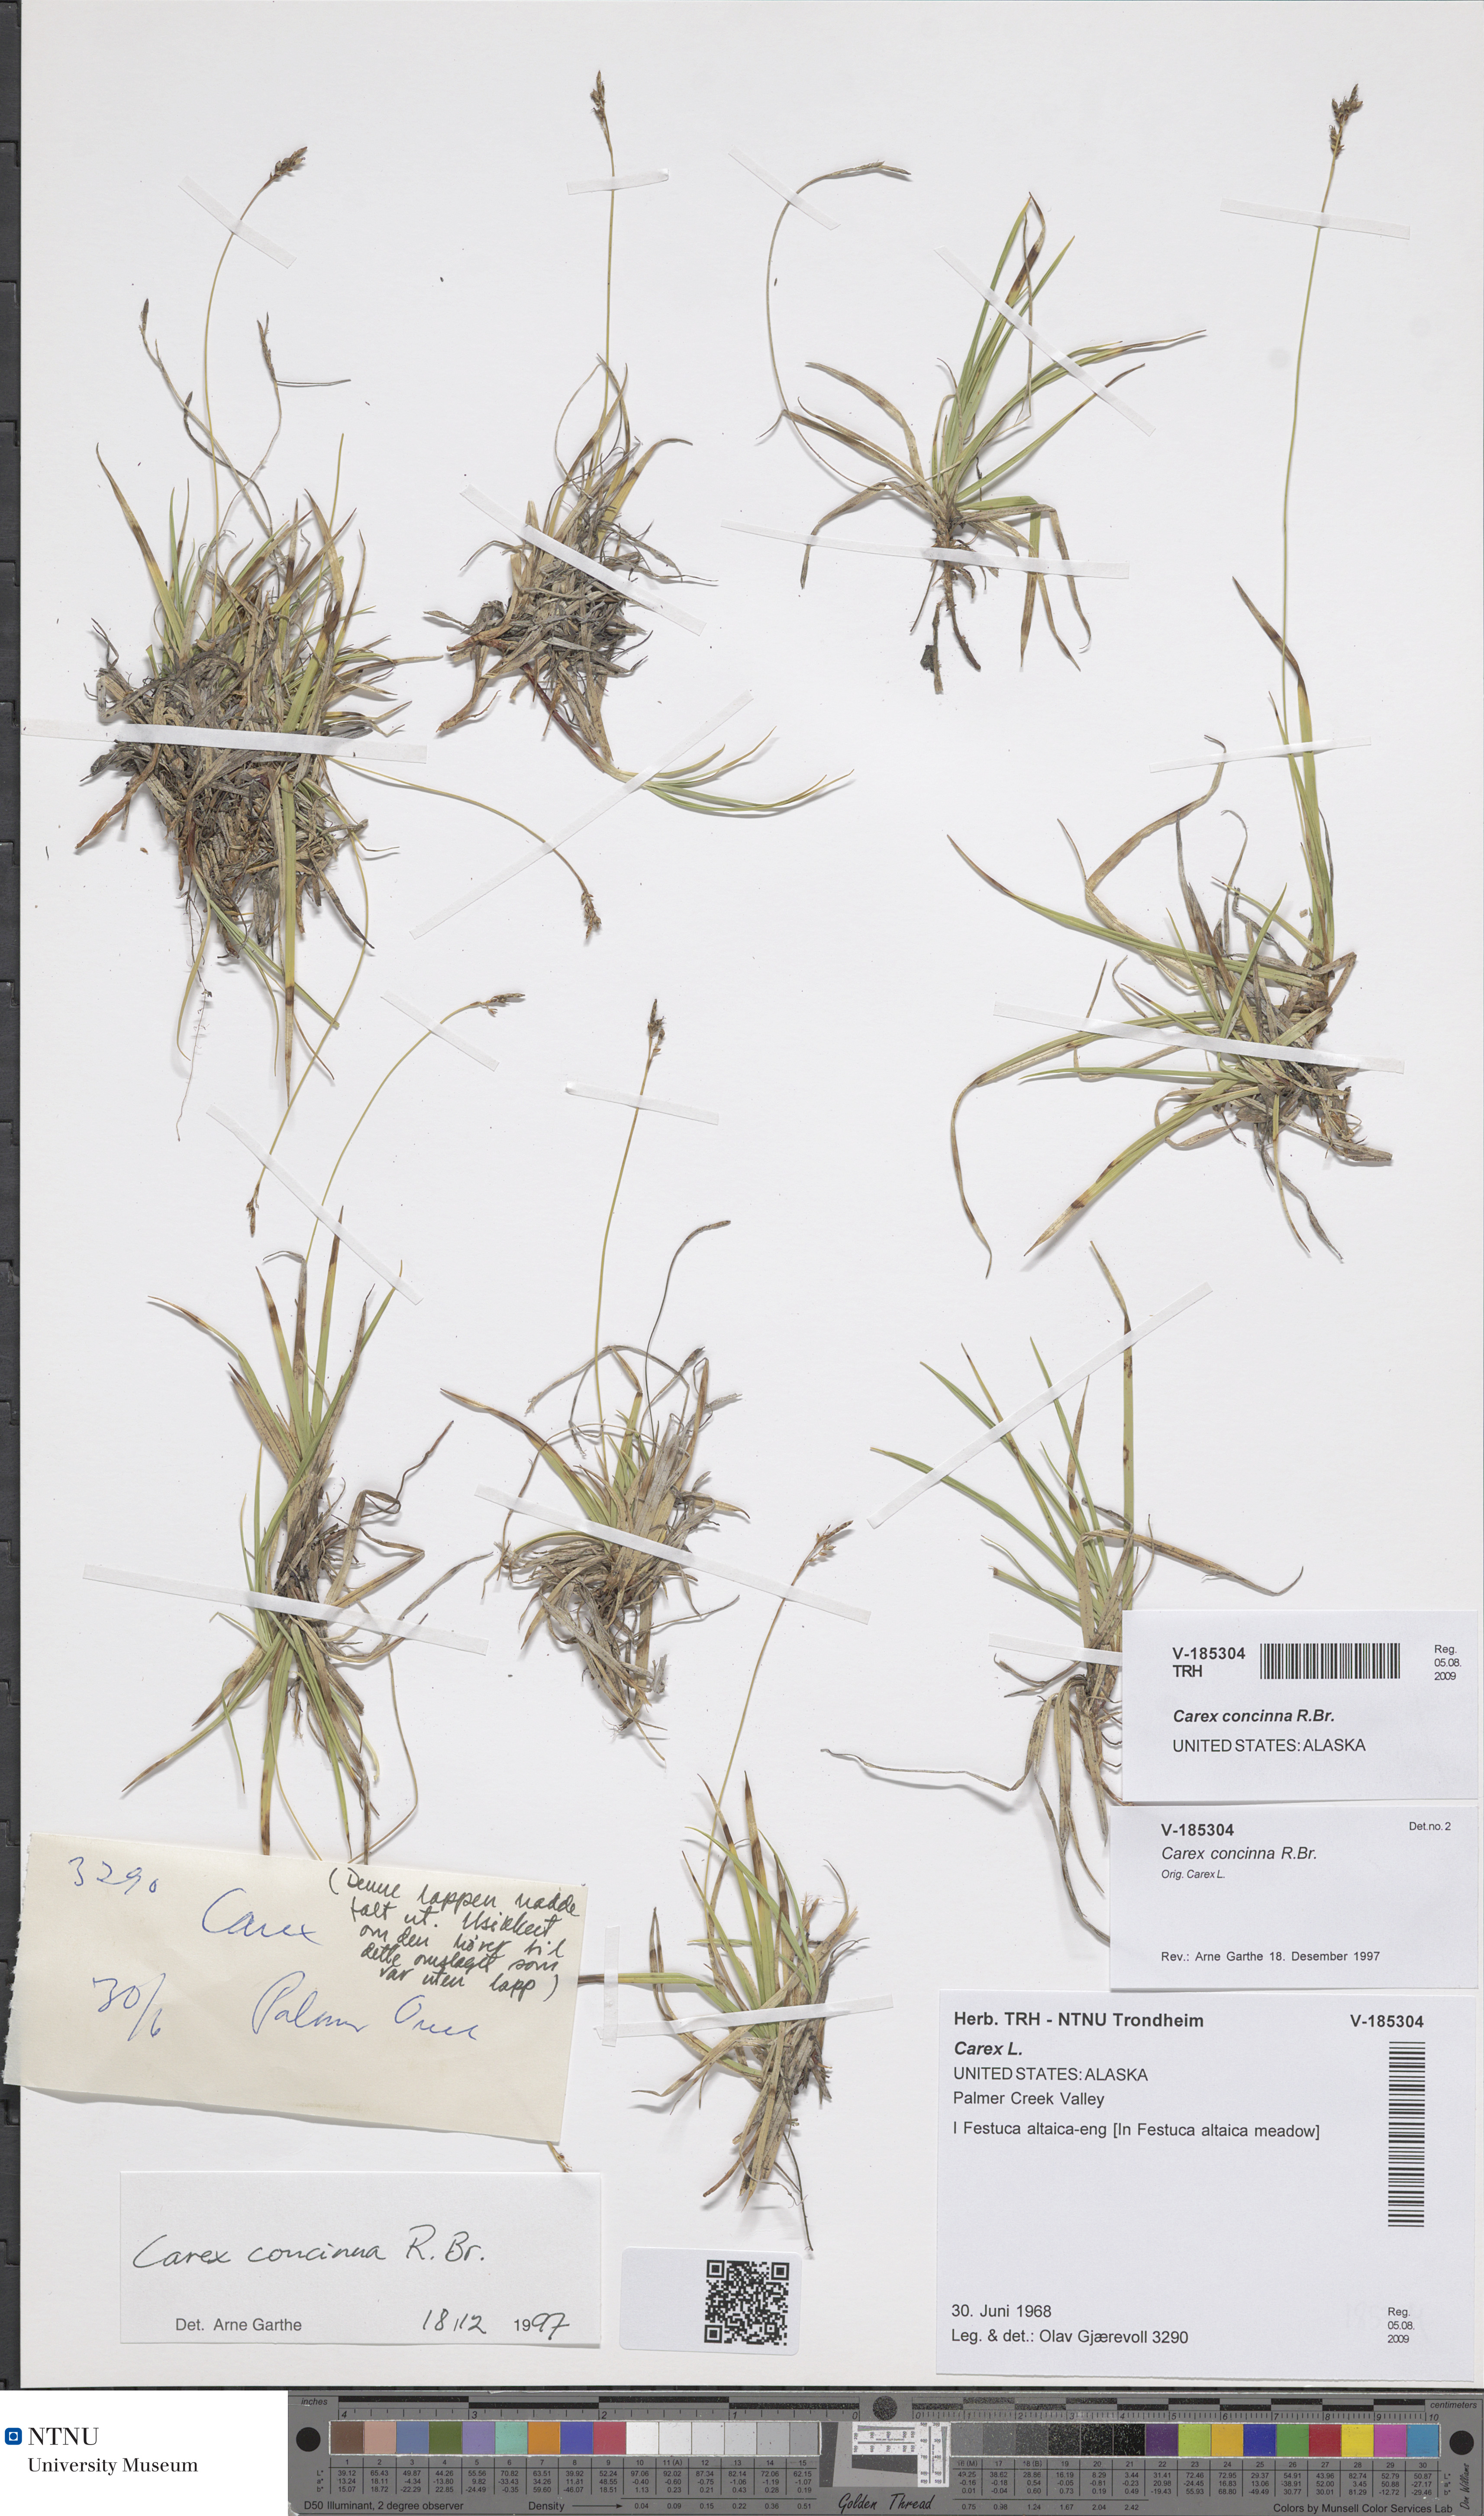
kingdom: Plantae
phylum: Tracheophyta
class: Liliopsida
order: Poales
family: Cyperaceae
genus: Carex
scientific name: Carex concinna
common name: Beautiful sedge
